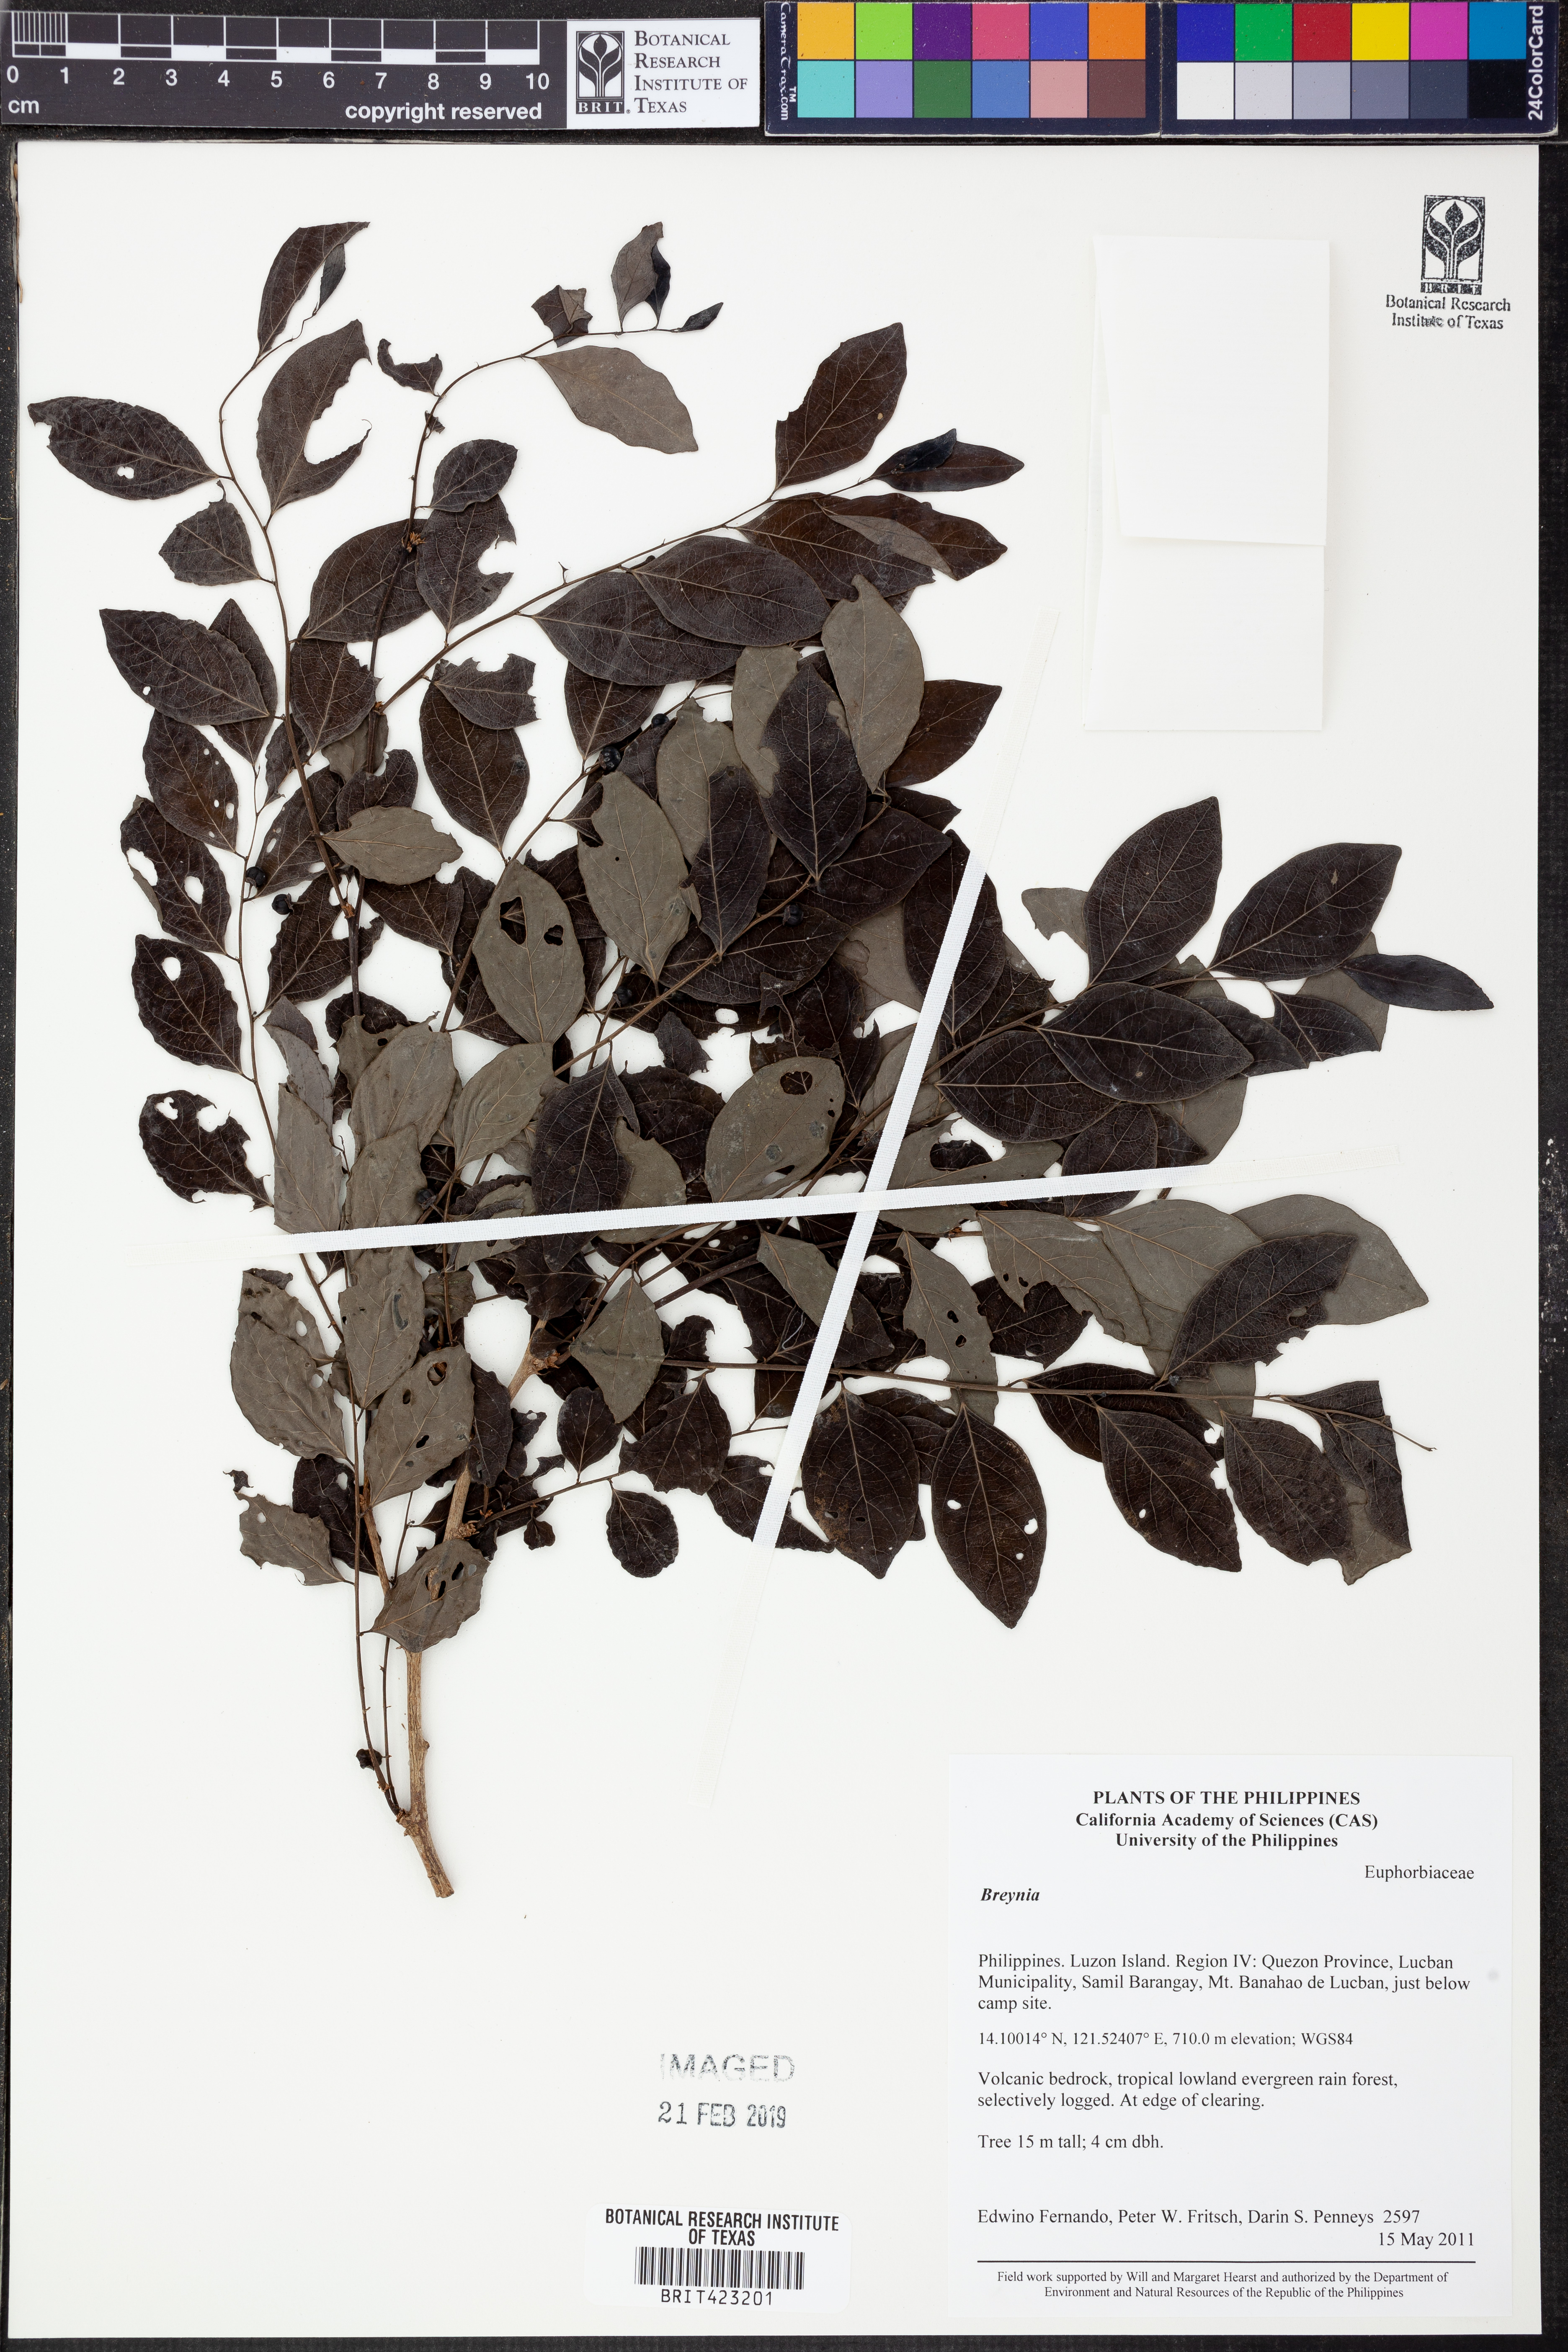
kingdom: Plantae
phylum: Tracheophyta
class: Magnoliopsida
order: Malpighiales
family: Phyllanthaceae
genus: Breynia
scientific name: Breynia
